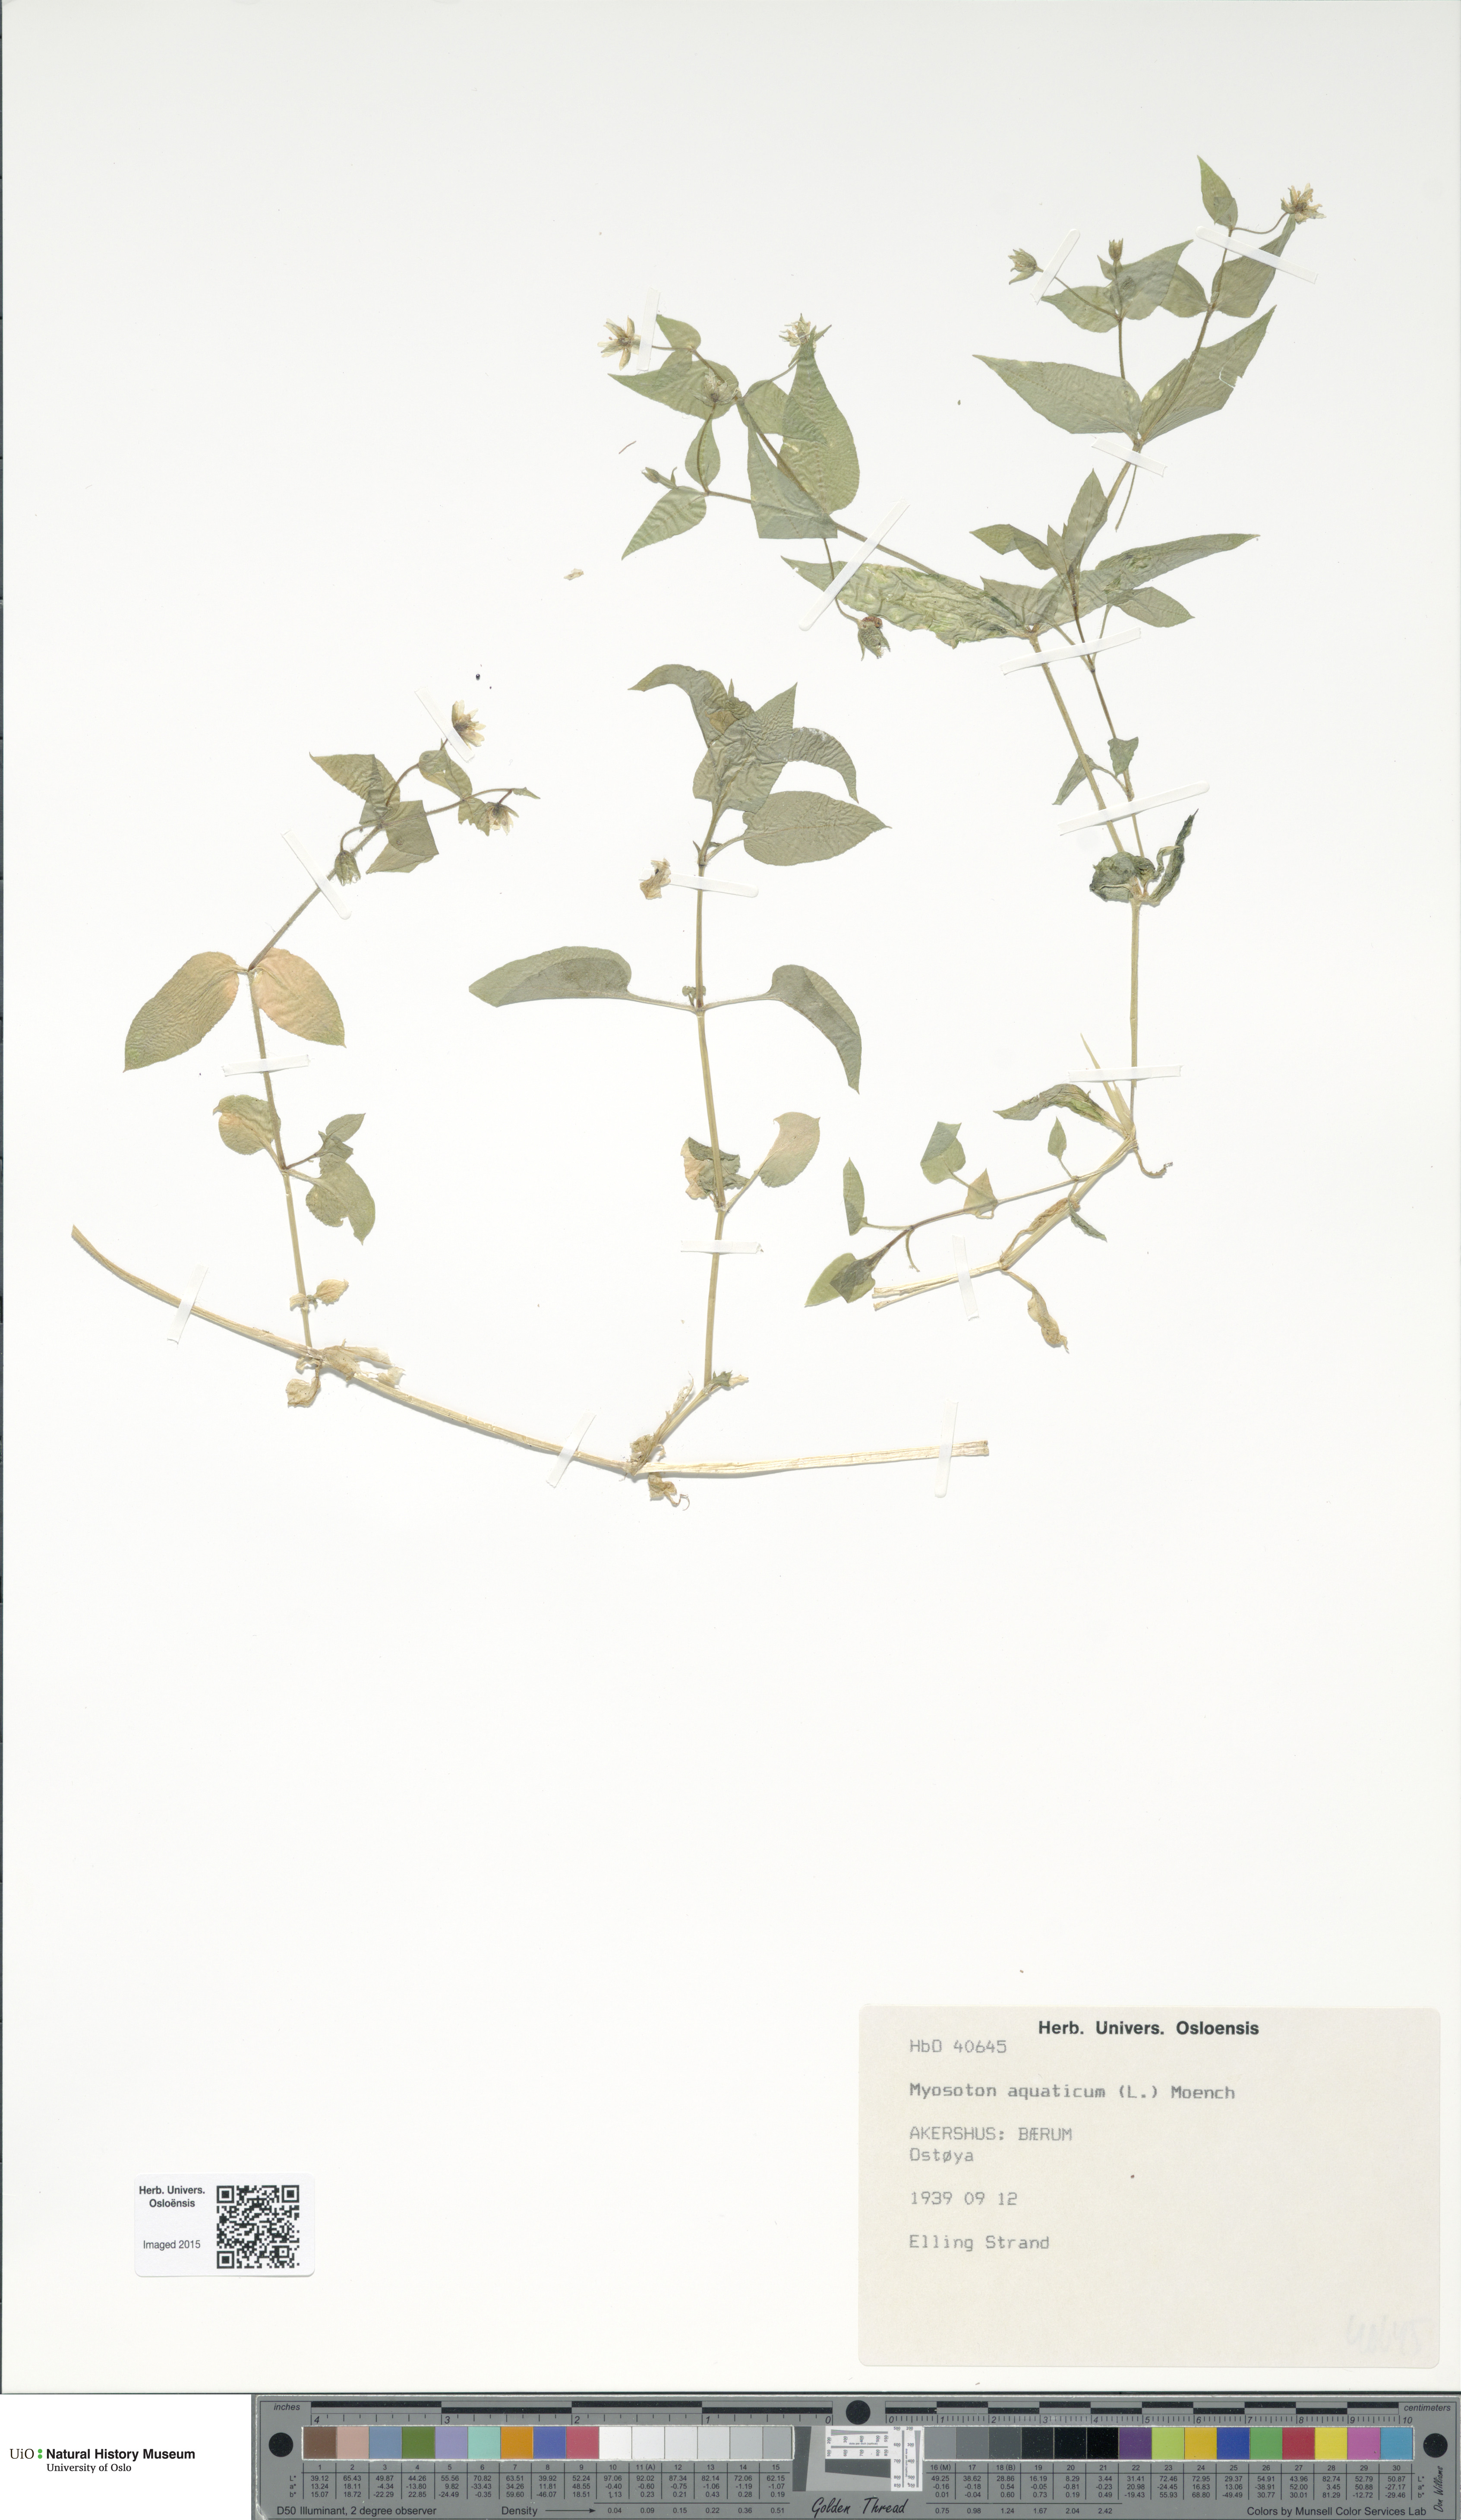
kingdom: Plantae
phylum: Tracheophyta
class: Magnoliopsida
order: Caryophyllales
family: Caryophyllaceae
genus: Stellaria
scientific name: Stellaria aquatica
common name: Water chickweed
